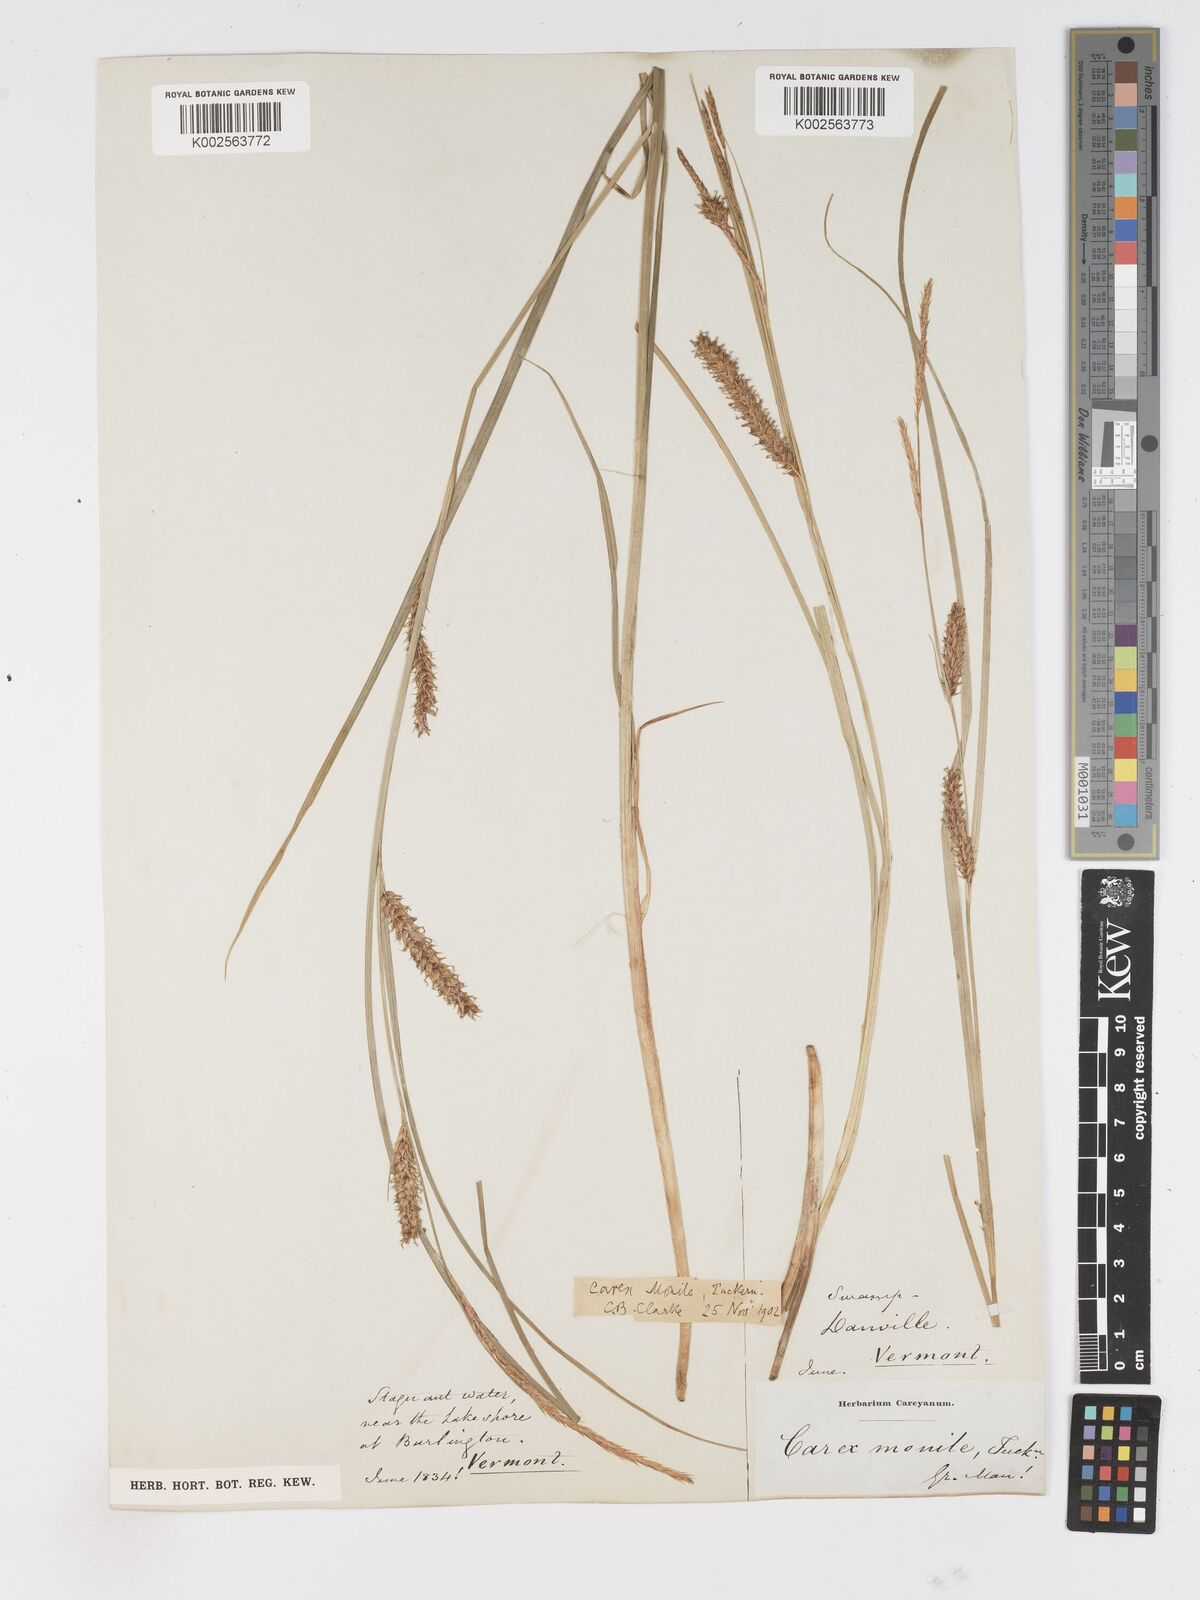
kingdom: Plantae
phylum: Tracheophyta
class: Liliopsida
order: Poales
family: Cyperaceae
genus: Carex
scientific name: Carex vesicaria
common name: Bladder-sedge
